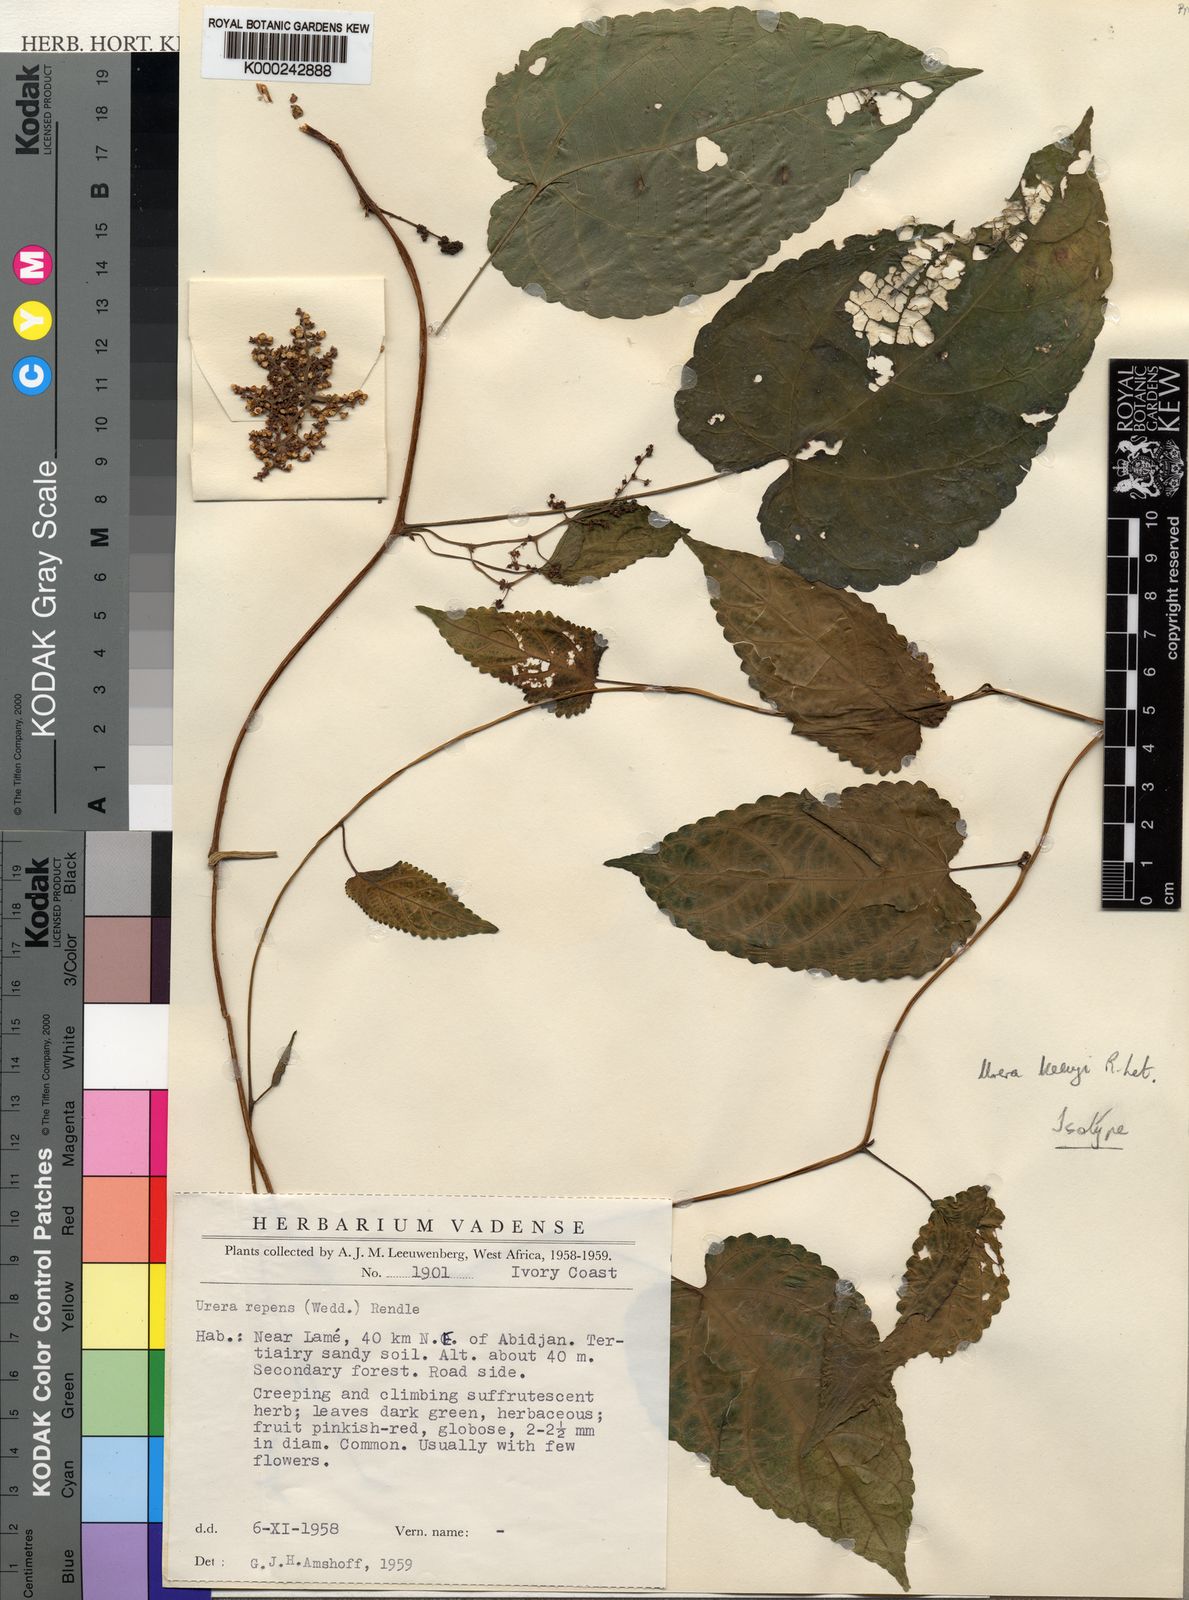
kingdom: Plantae
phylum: Tracheophyta
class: Magnoliopsida
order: Rosales
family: Urticaceae
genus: Scepocarpus
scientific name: Scepocarpus keayi
